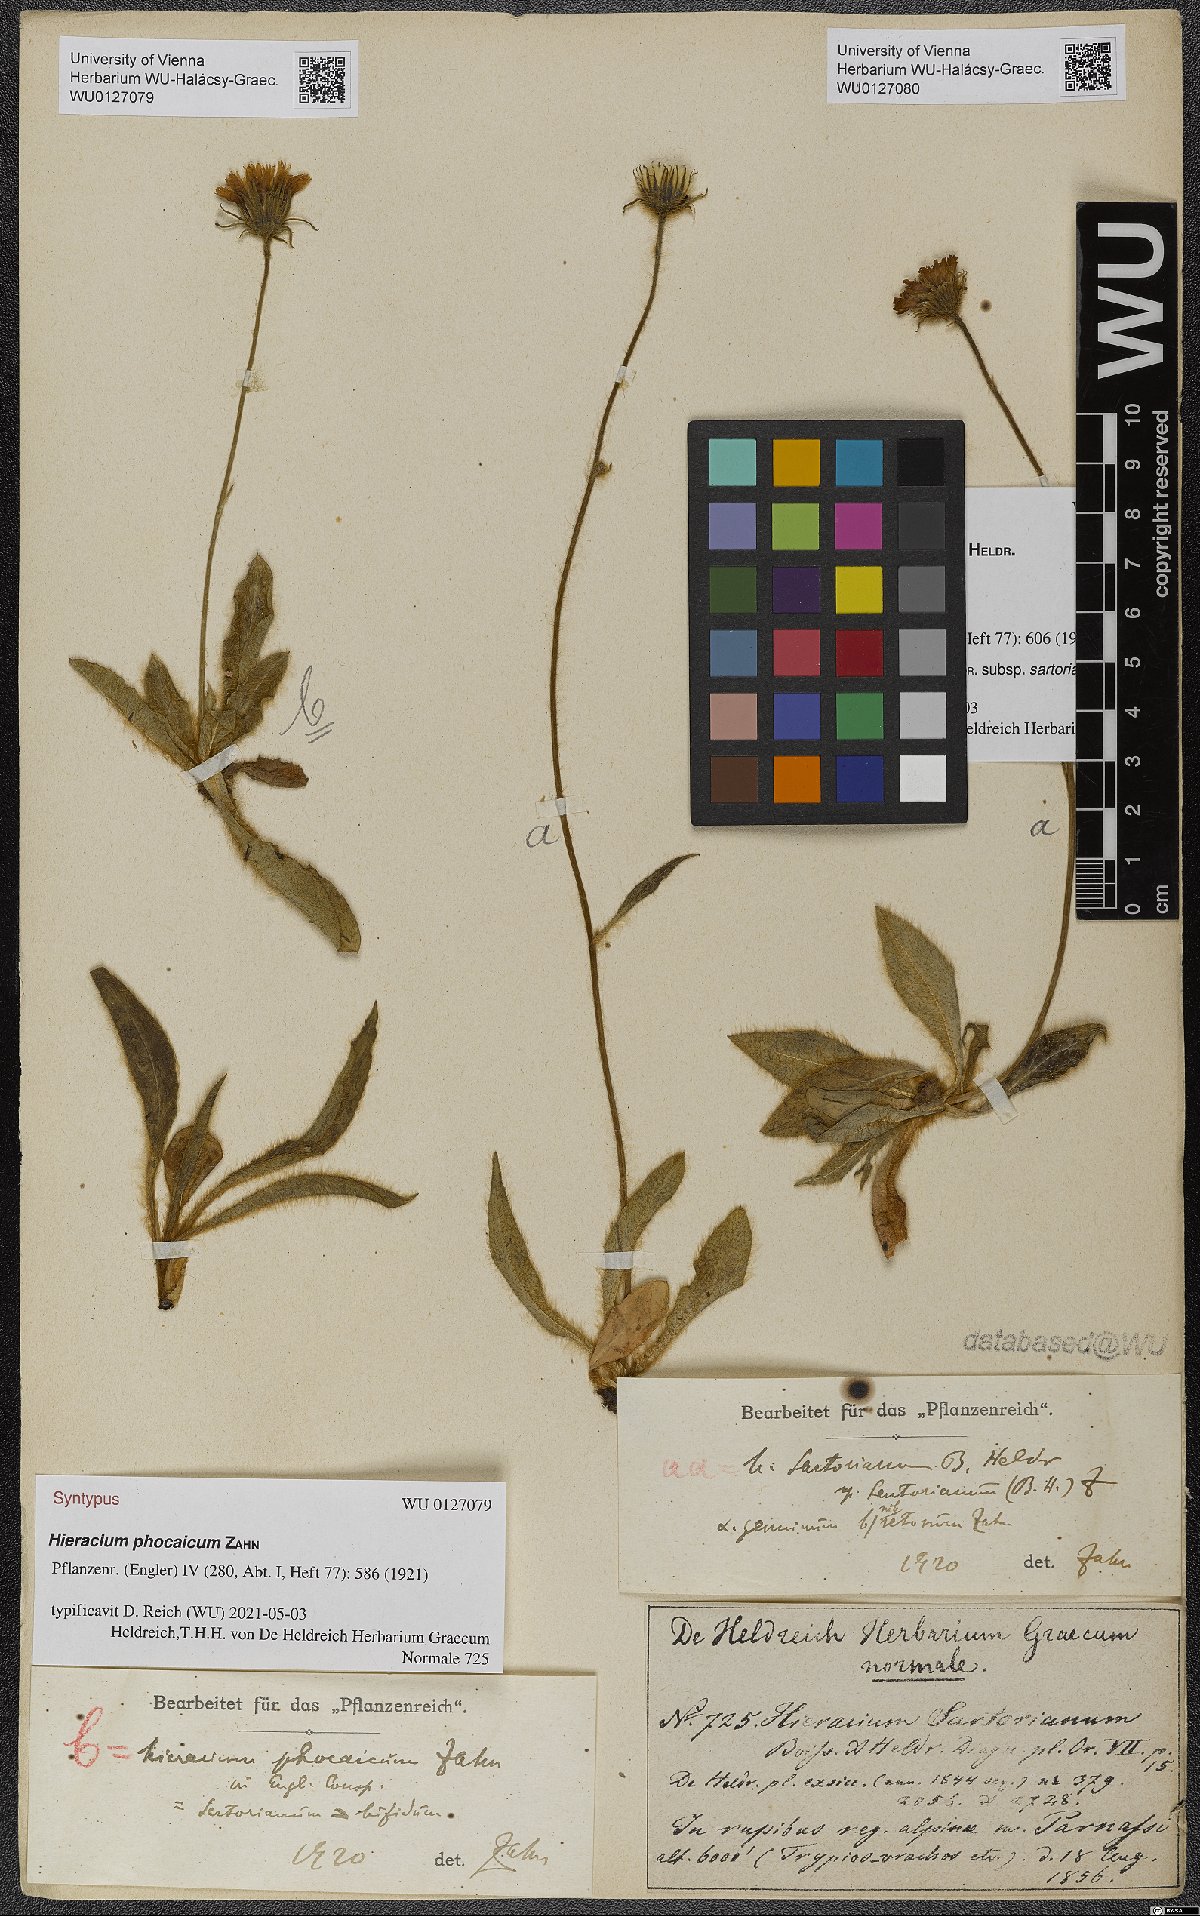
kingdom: Plantae
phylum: Tracheophyta
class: Magnoliopsida
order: Asterales
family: Asteraceae
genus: Hieracium
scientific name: Hieracium phocaicum
